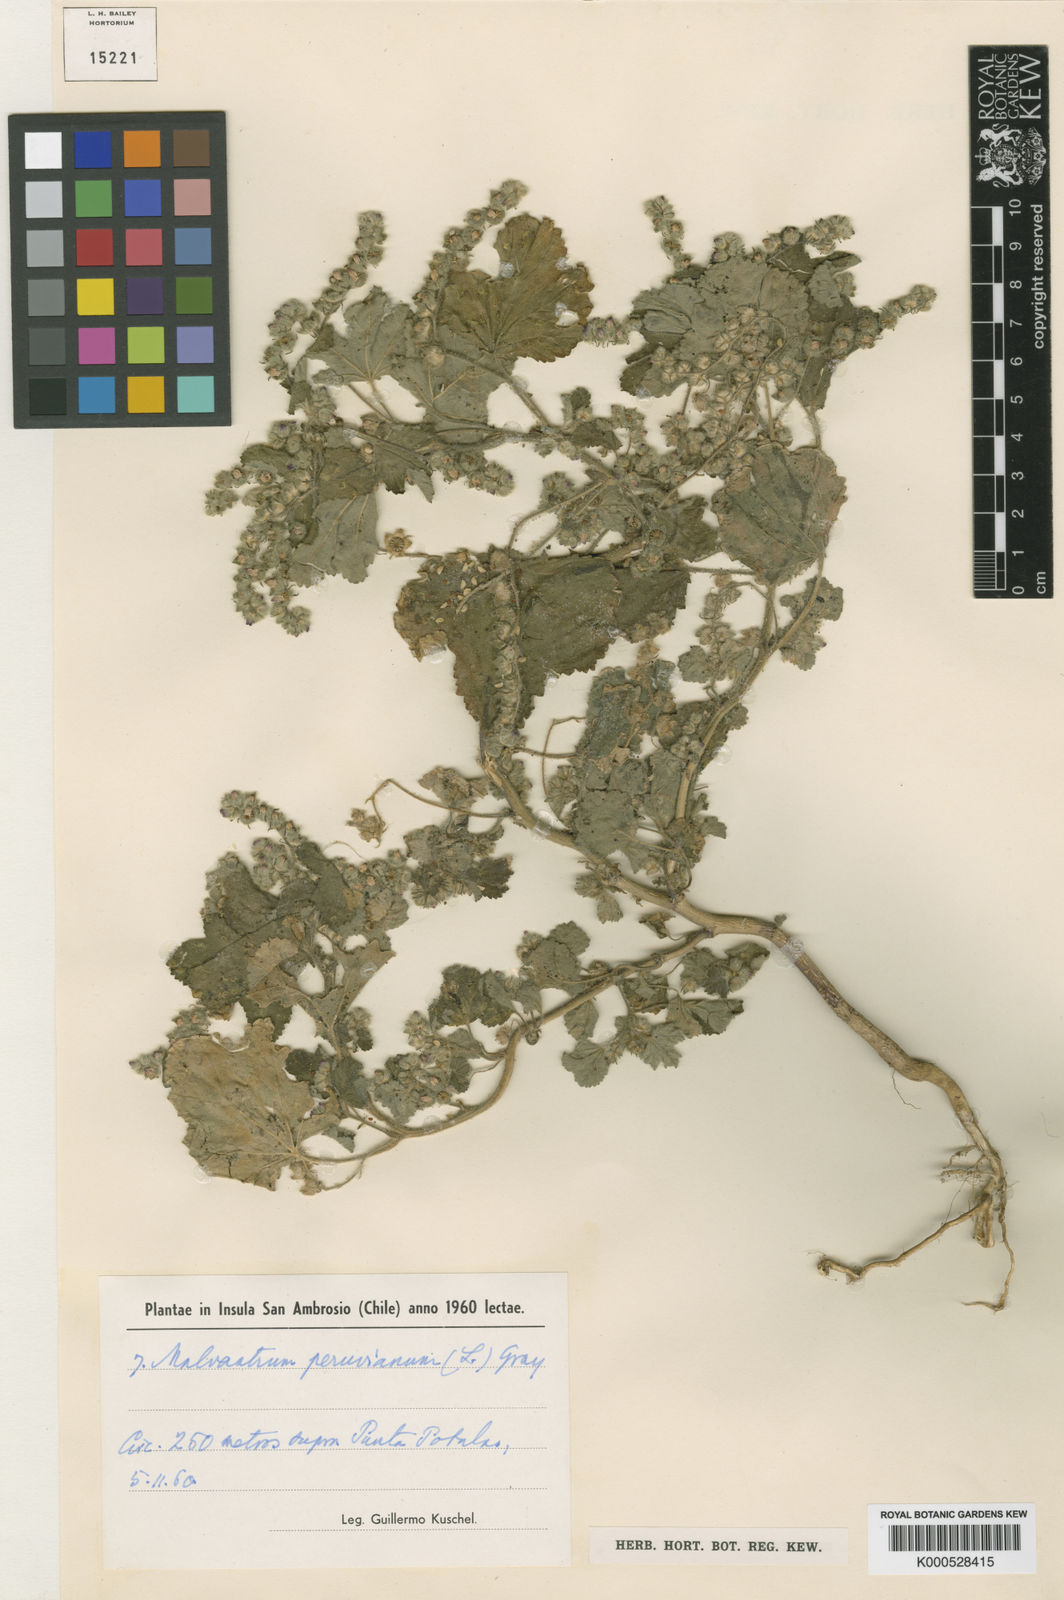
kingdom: Plantae
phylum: Tracheophyta
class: Magnoliopsida
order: Malvales
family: Malvaceae
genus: Fuertesimalva
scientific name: Fuertesimalva sanambrosiana
